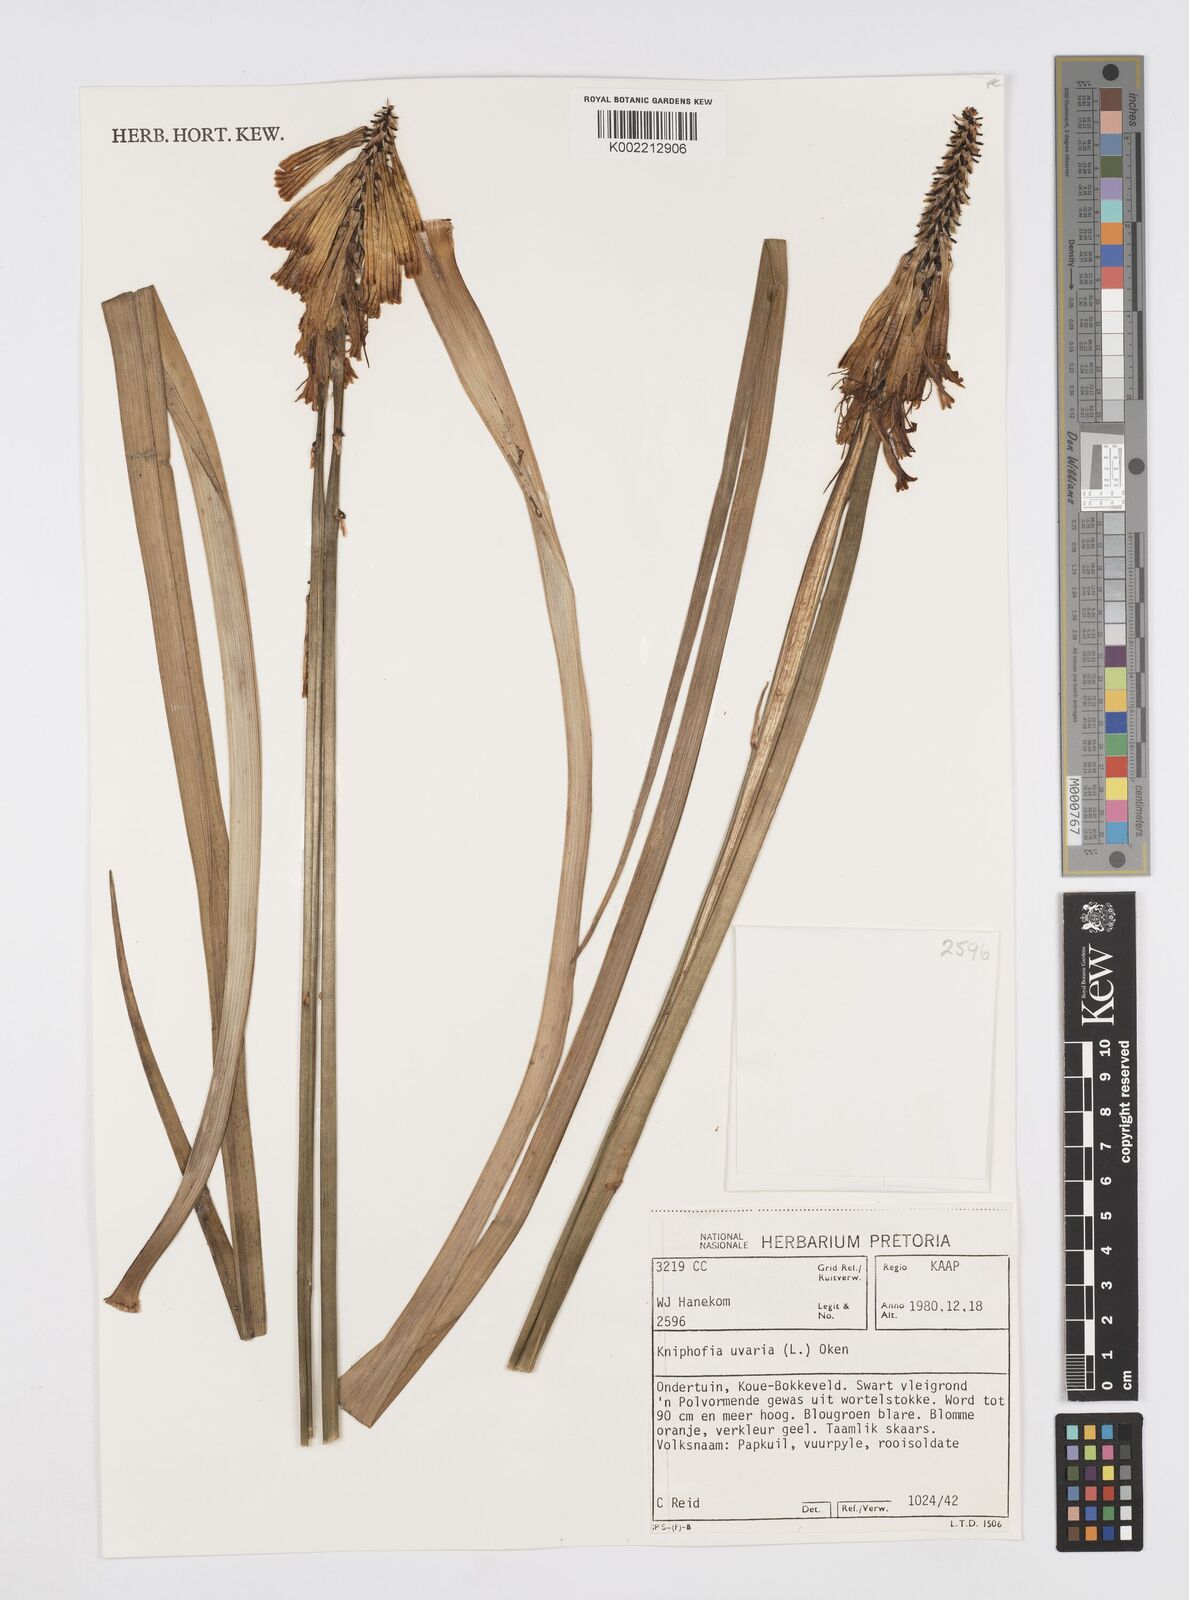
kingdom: Plantae
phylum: Tracheophyta
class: Liliopsida
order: Asparagales
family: Asphodelaceae
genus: Kniphofia
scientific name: Kniphofia uvaria
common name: Red-hot-poker
